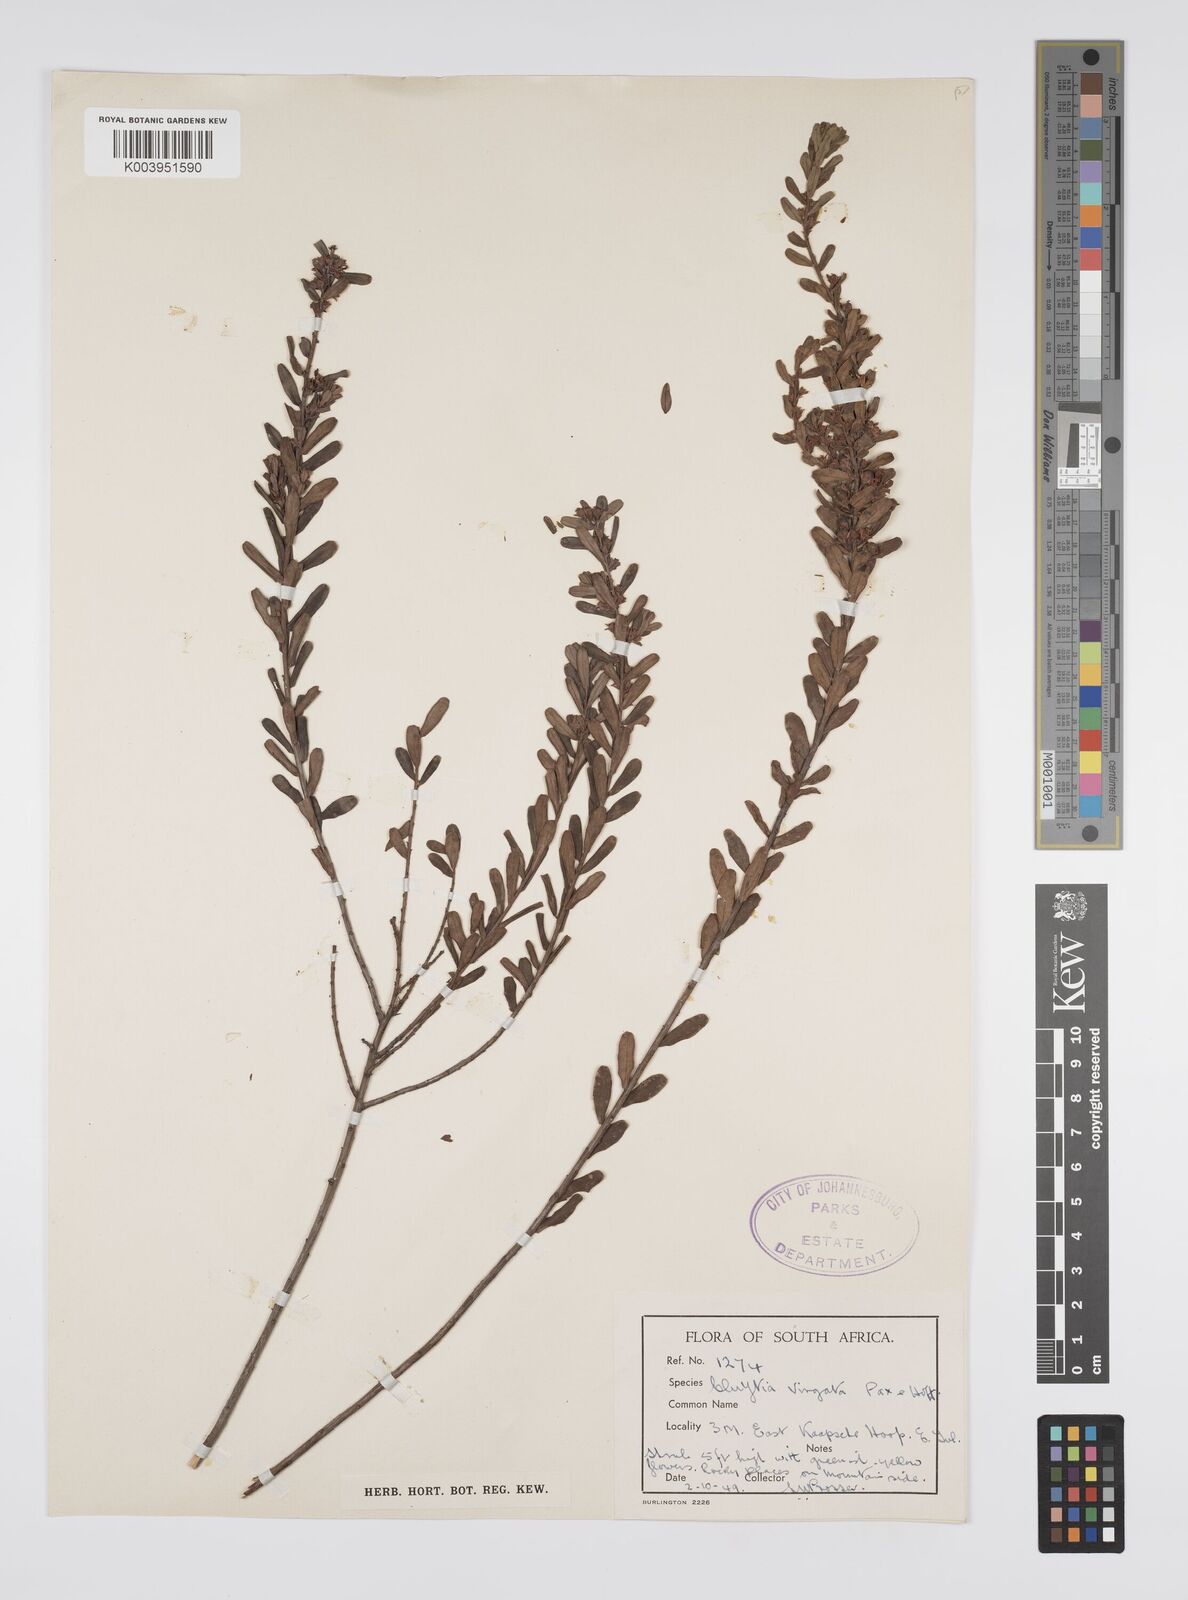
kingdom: Plantae
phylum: Tracheophyta
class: Magnoliopsida
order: Malpighiales
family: Peraceae
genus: Clutia
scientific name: Clutia virgata
